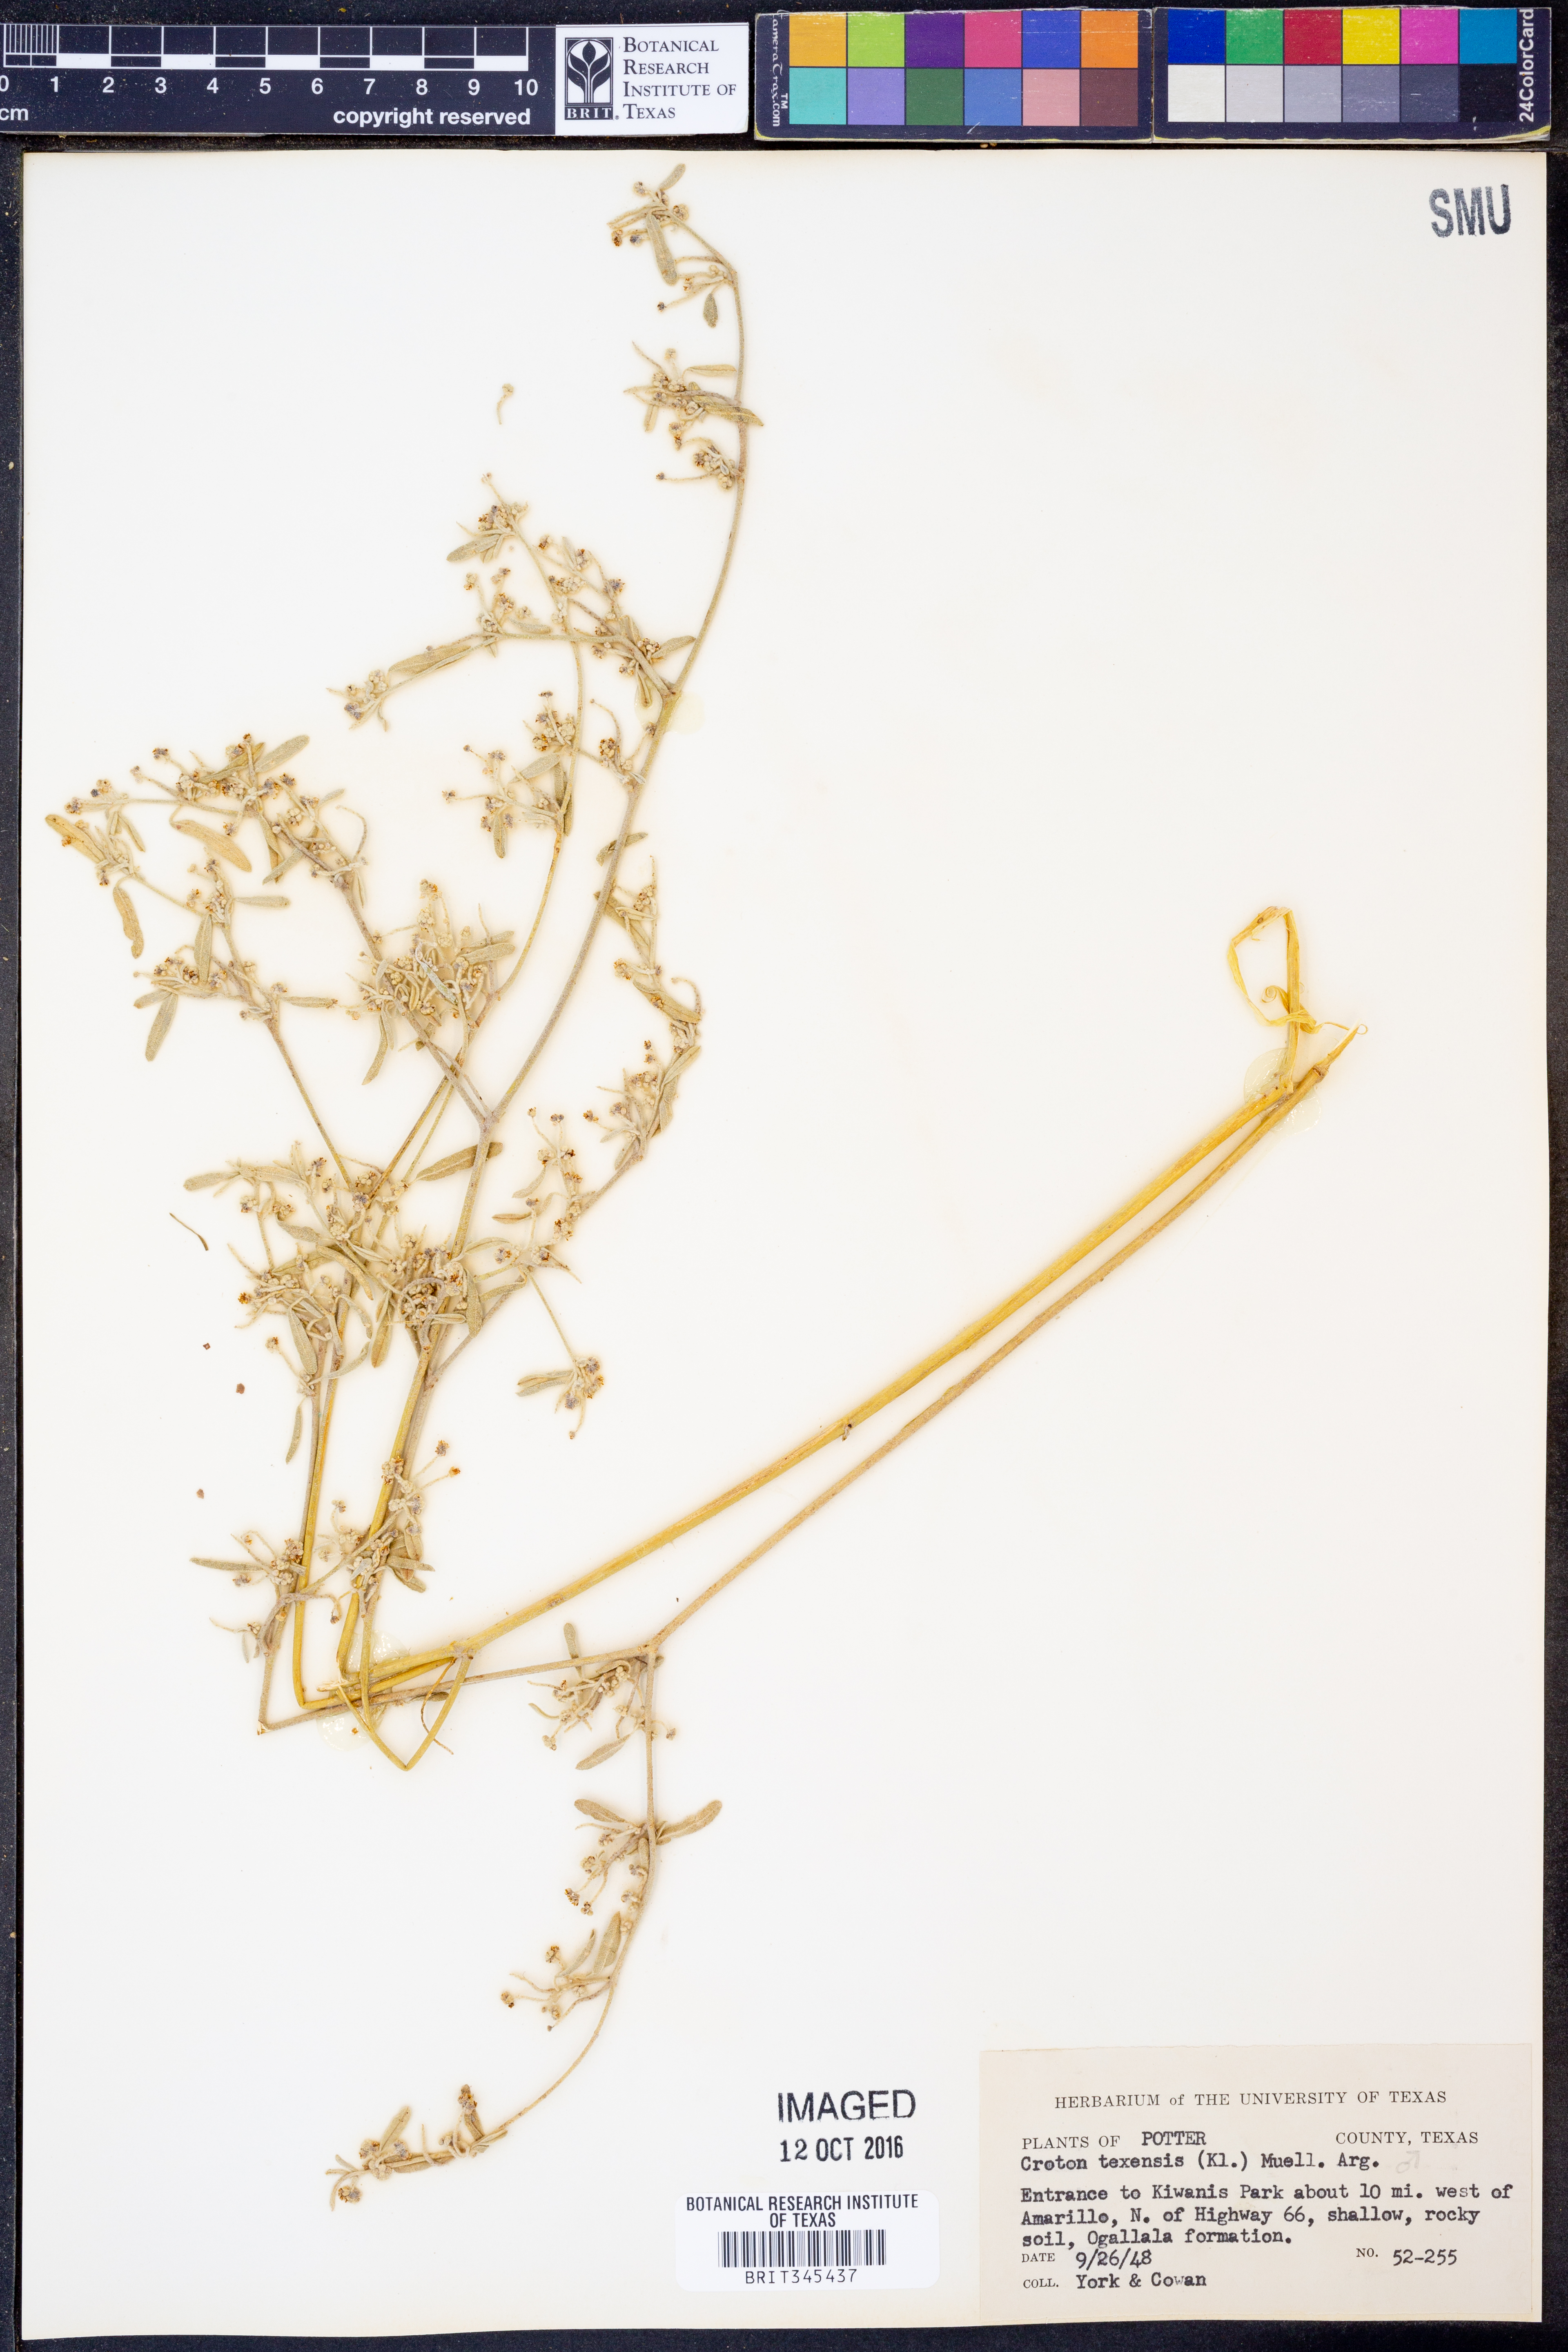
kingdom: Plantae
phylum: Tracheophyta
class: Magnoliopsida
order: Malpighiales
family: Euphorbiaceae
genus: Croton
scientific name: Croton texensis
